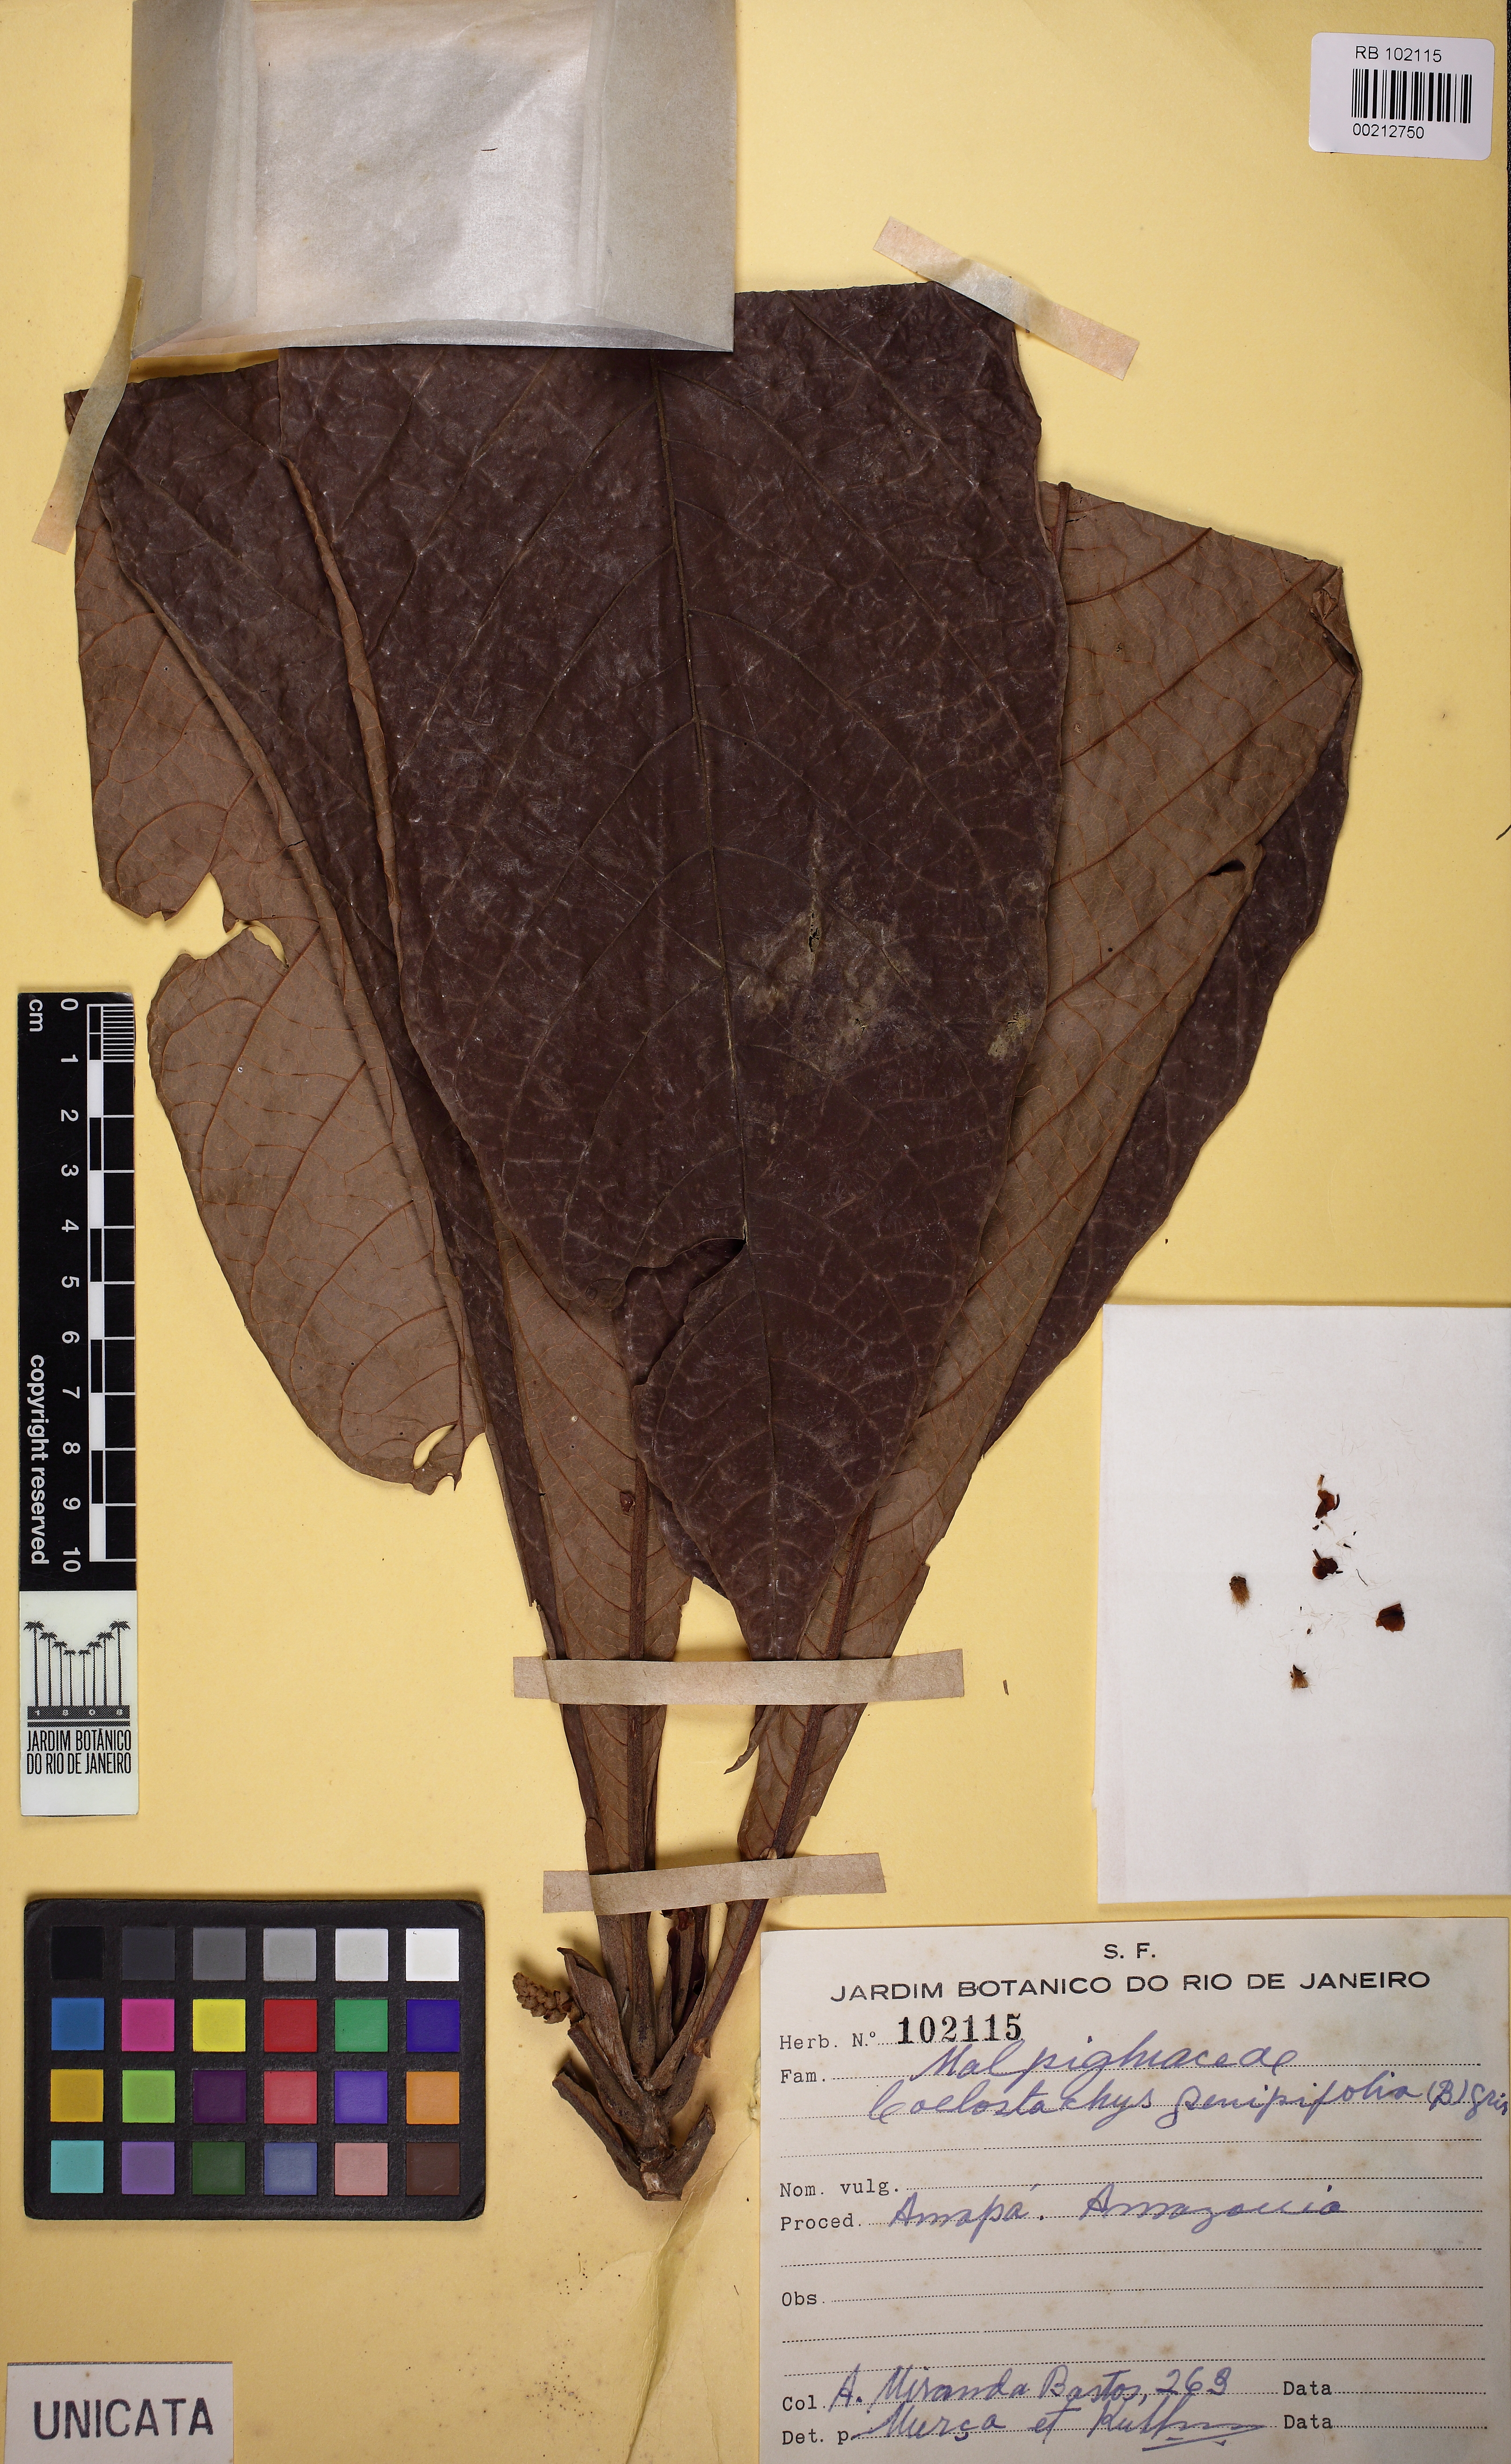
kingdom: Plantae
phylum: Tracheophyta
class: Magnoliopsida
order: Malpighiales
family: Malpighiaceae
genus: Coleostachys
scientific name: Coleostachys genipifolia
